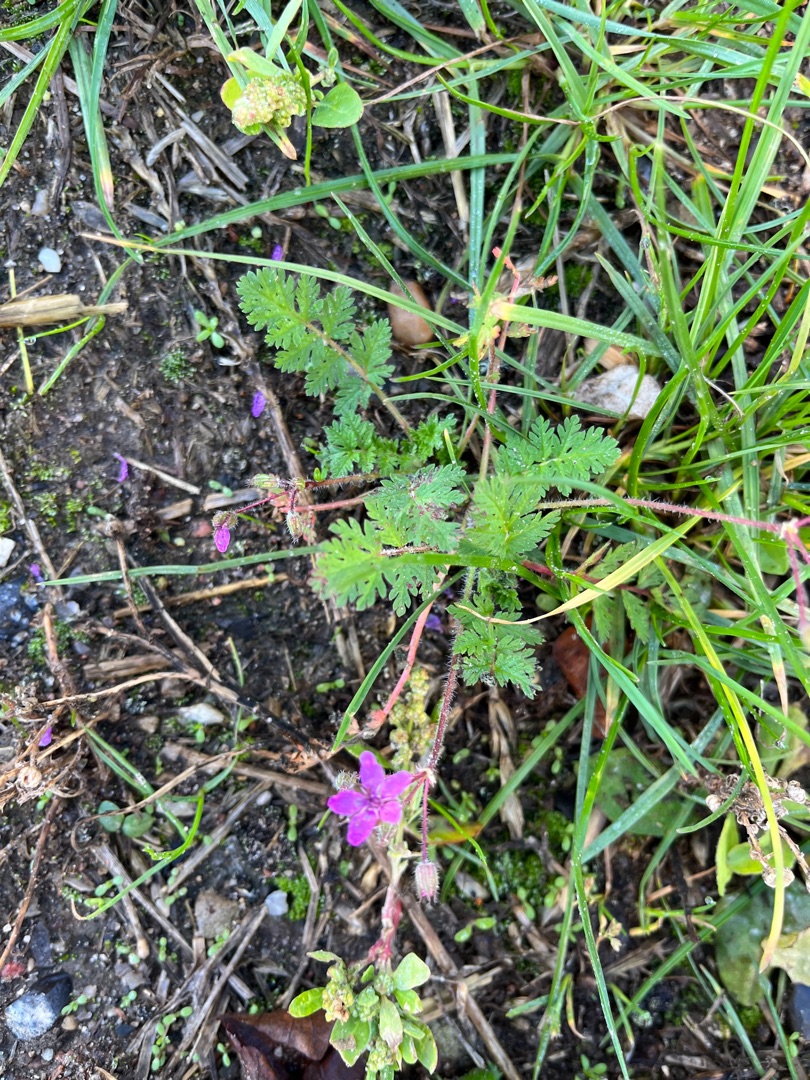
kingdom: Plantae
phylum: Tracheophyta
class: Magnoliopsida
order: Geraniales
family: Geraniaceae
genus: Erodium
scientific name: Erodium cicutarium
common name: Hejrenæb
